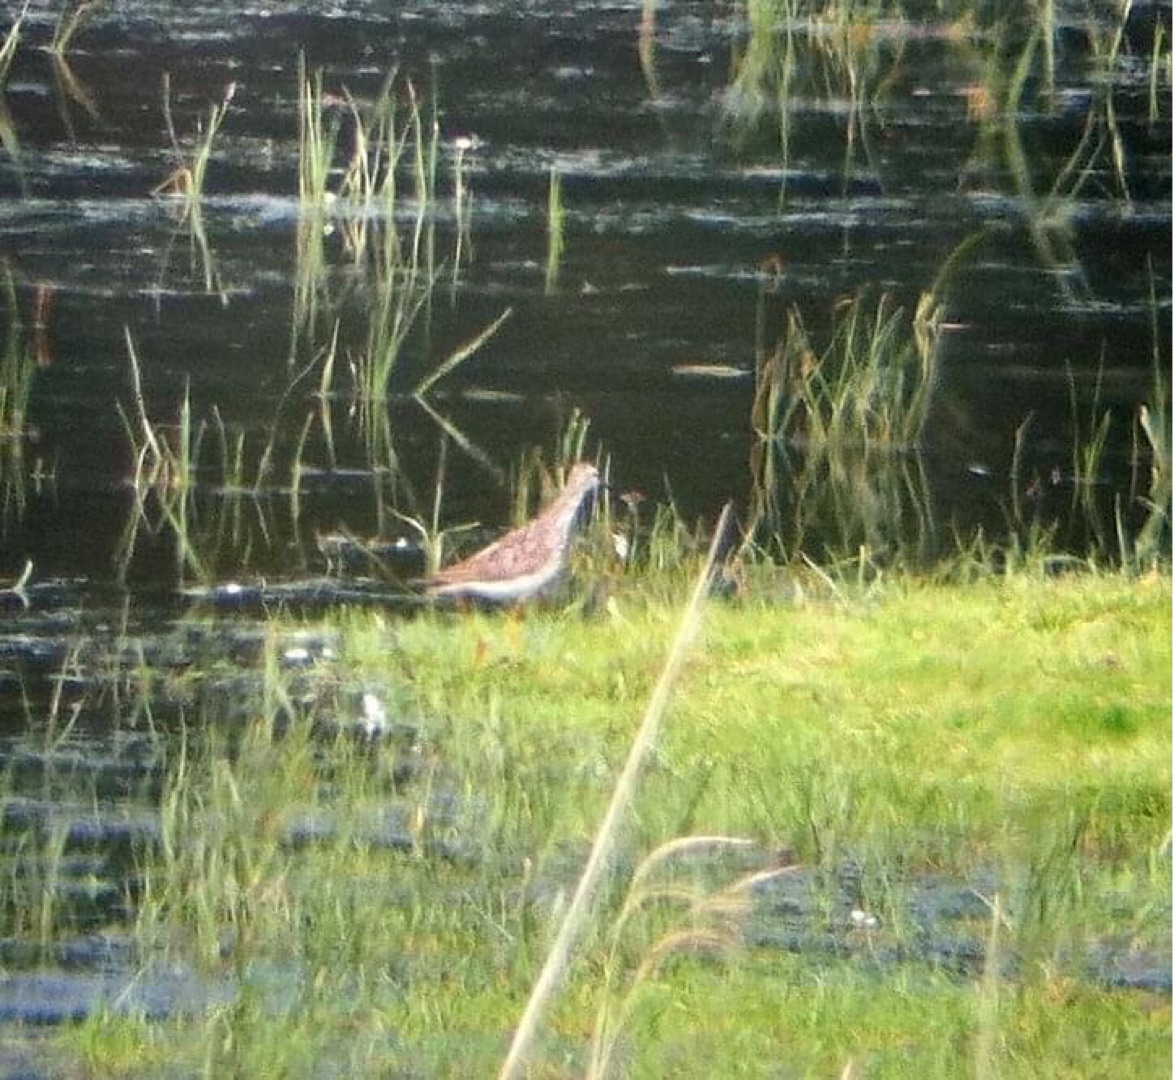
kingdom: Animalia
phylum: Chordata
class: Aves
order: Charadriiformes
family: Scolopacidae
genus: Tringa
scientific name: Tringa flavipes
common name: Lille gulben
